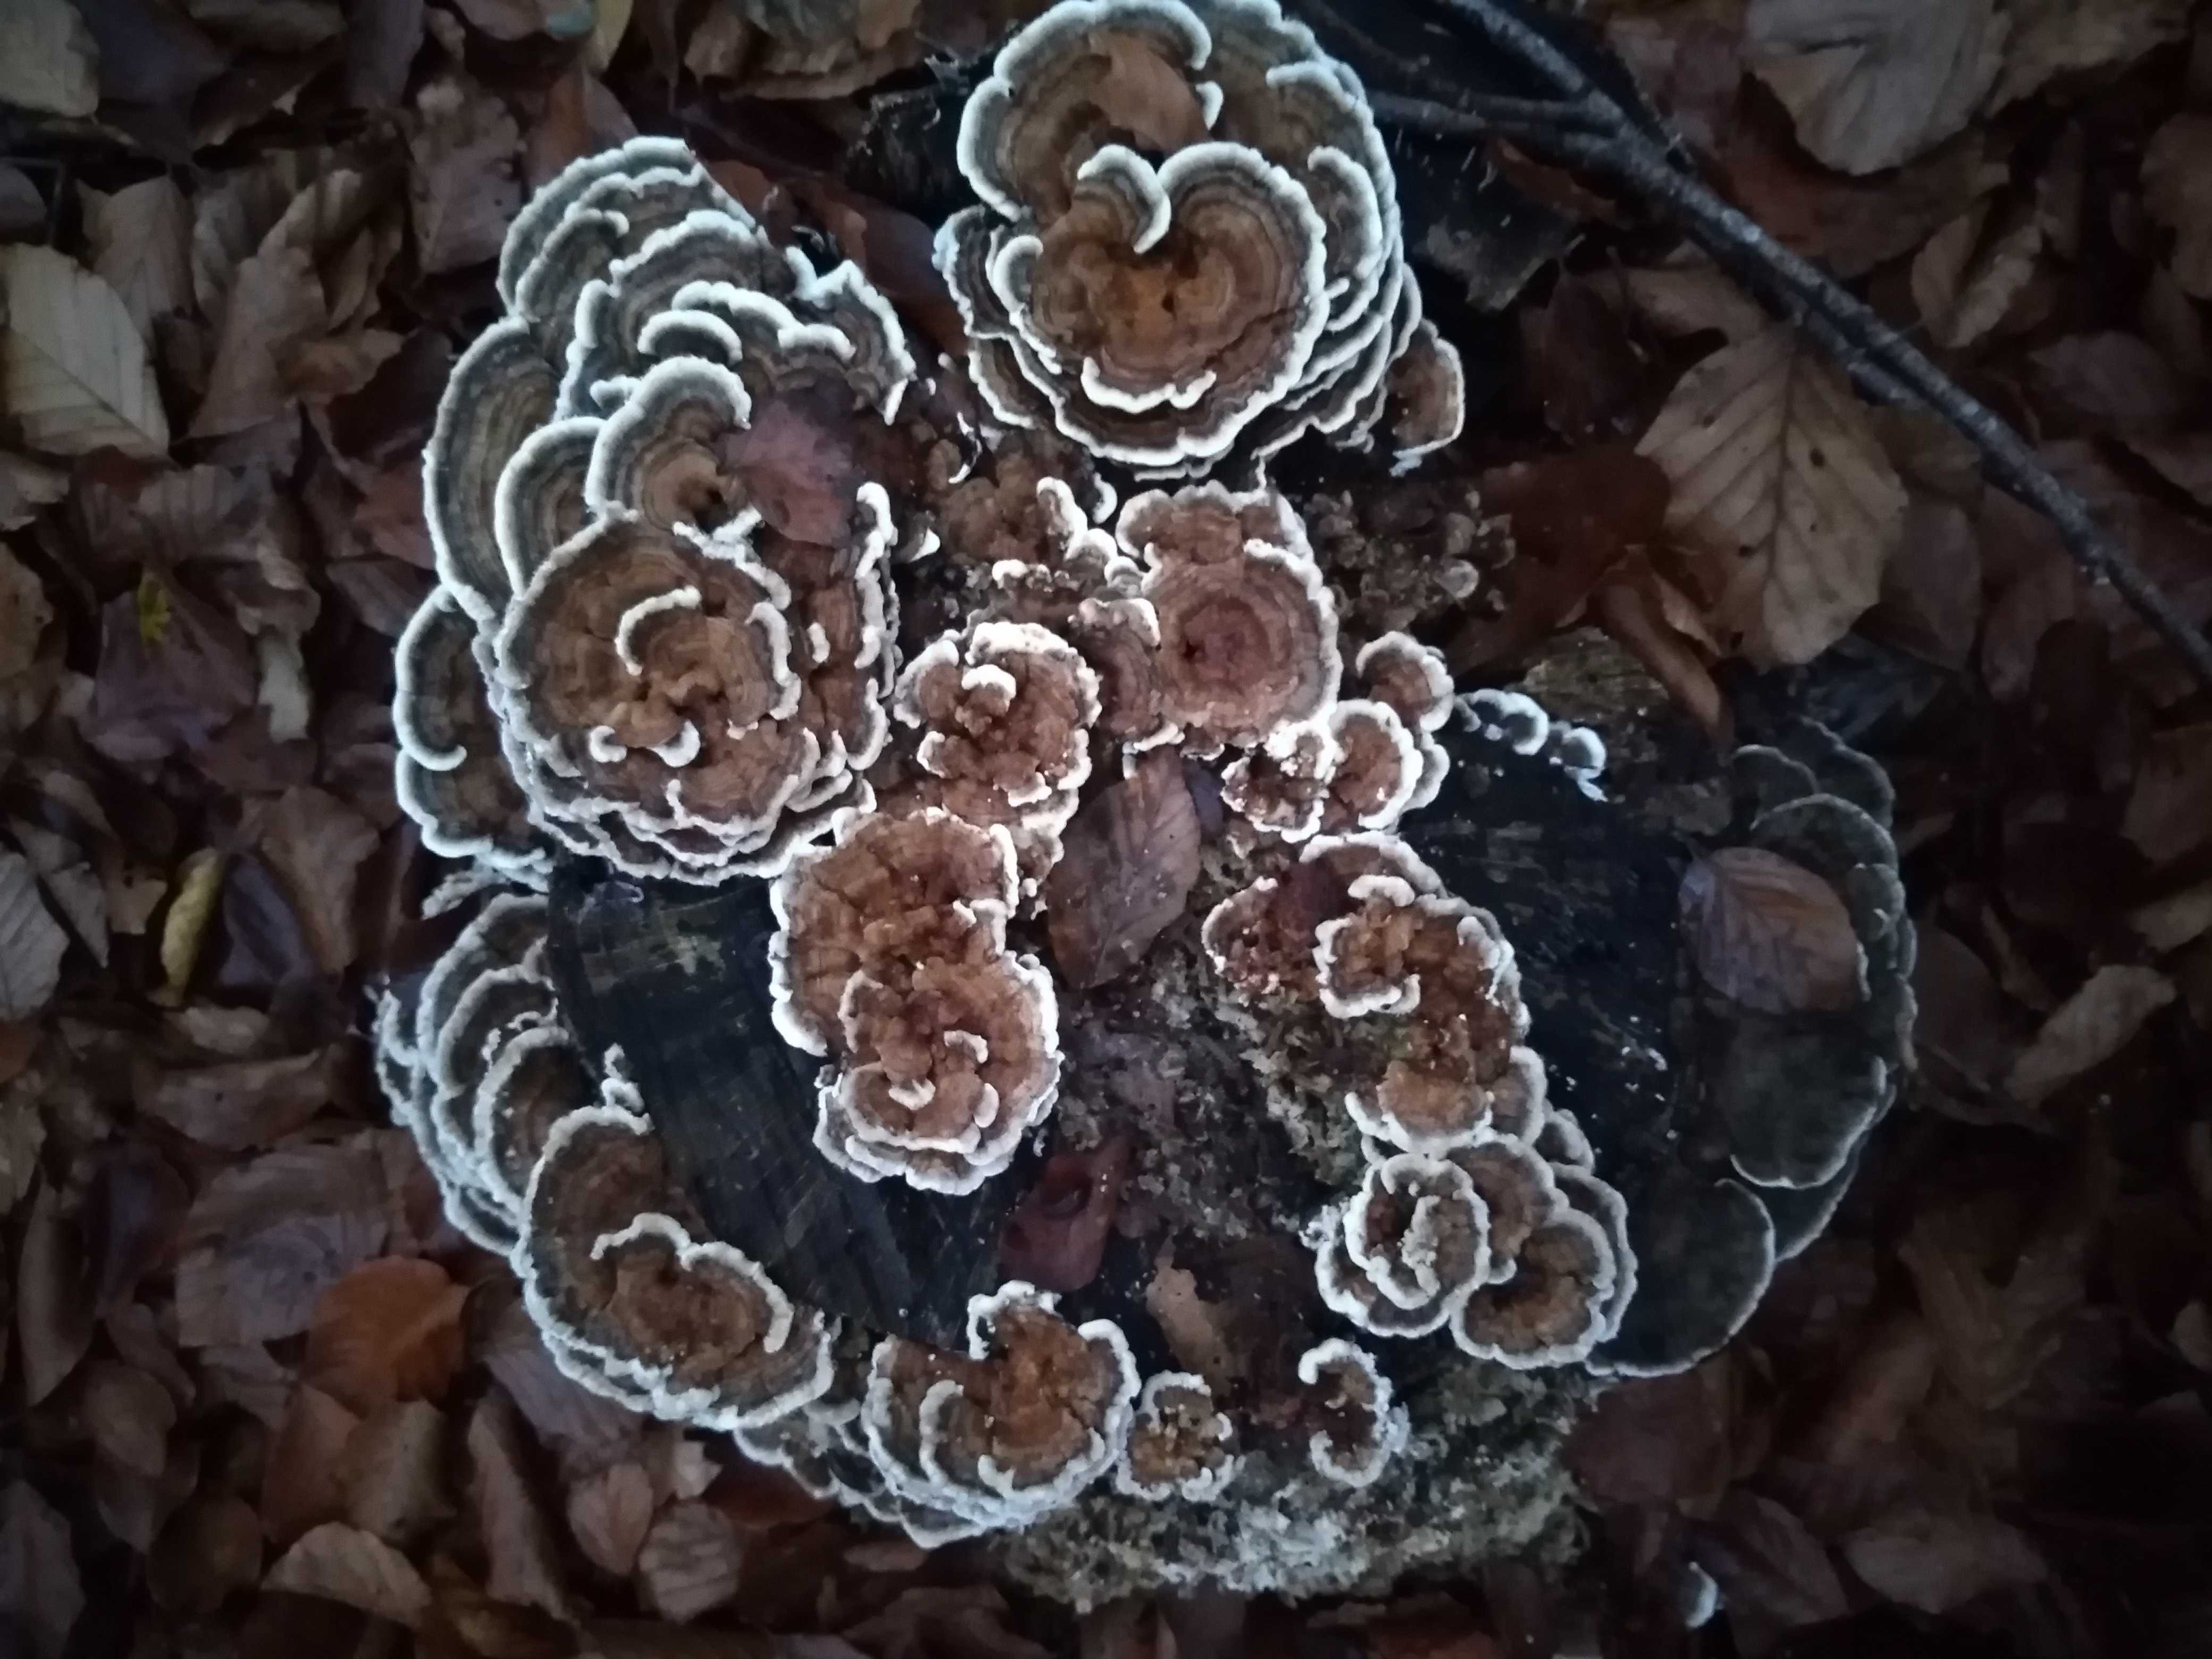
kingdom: Fungi
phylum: Basidiomycota
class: Agaricomycetes
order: Polyporales
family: Polyporaceae
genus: Trametes
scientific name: Trametes versicolor
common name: broget læderporesvamp
